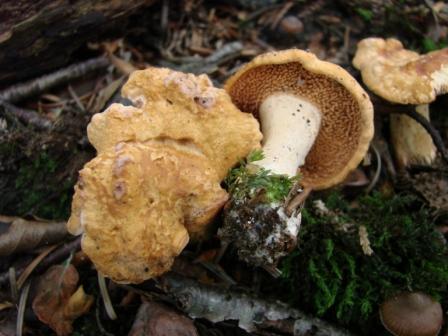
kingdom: Fungi
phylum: Basidiomycota
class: Agaricomycetes
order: Cantharellales
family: Hydnaceae
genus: Hydnum
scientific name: Hydnum ellipsosporum
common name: tandet pigsvamp
